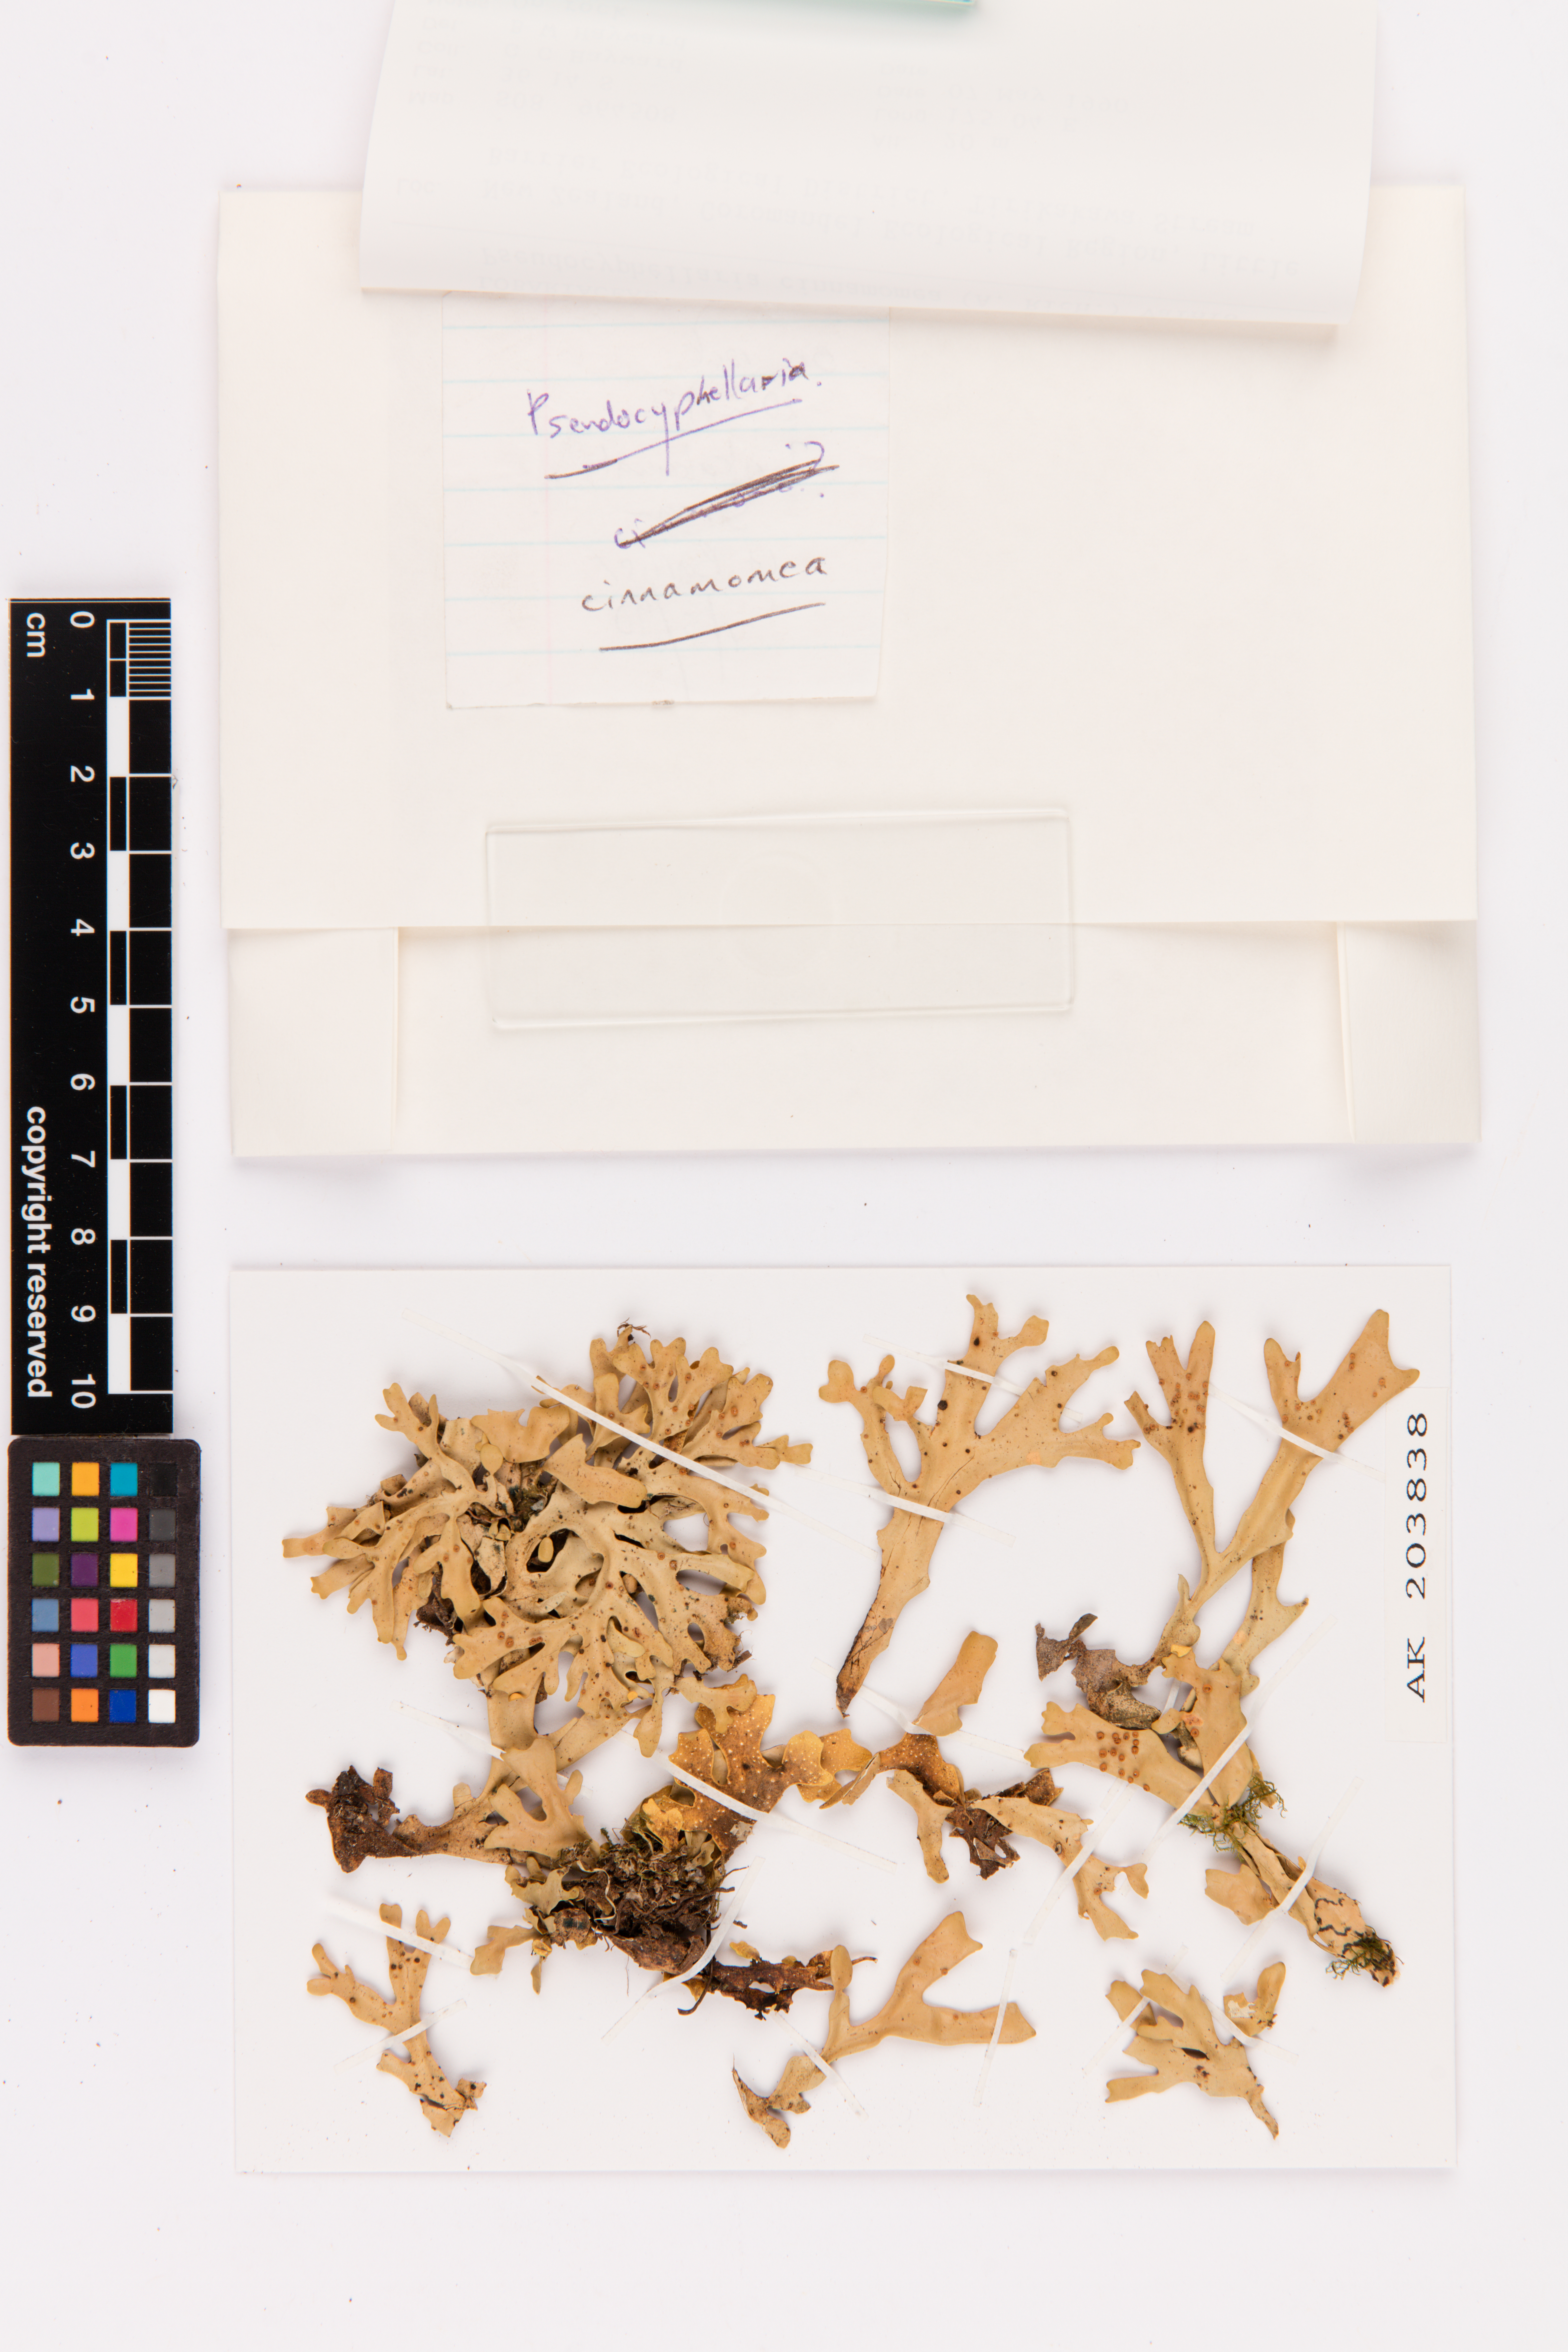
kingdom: Fungi
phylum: Ascomycota
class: Lecanoromycetes
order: Peltigerales
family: Lobariaceae
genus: Pseudocyphellaria
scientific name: Pseudocyphellaria cinnamomea
